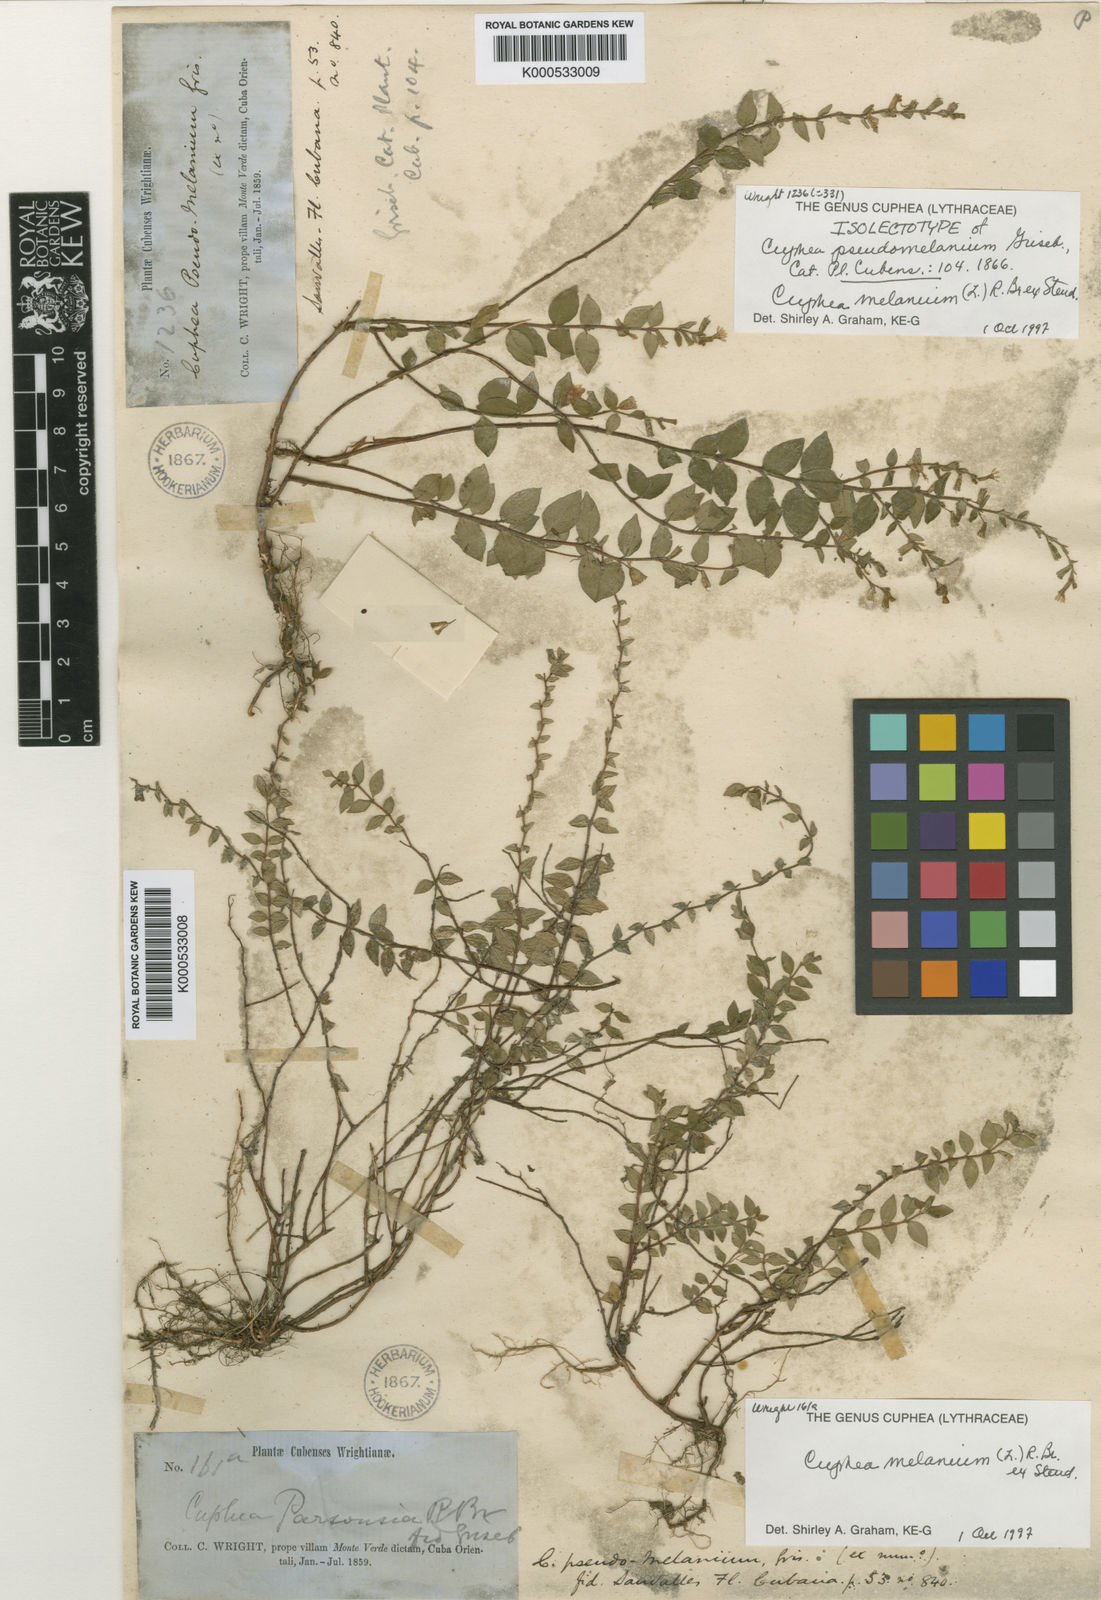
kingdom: Plantae
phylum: Tracheophyta
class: Magnoliopsida
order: Myrtales
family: Lythraceae
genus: Cuphea
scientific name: Cuphea melanium
